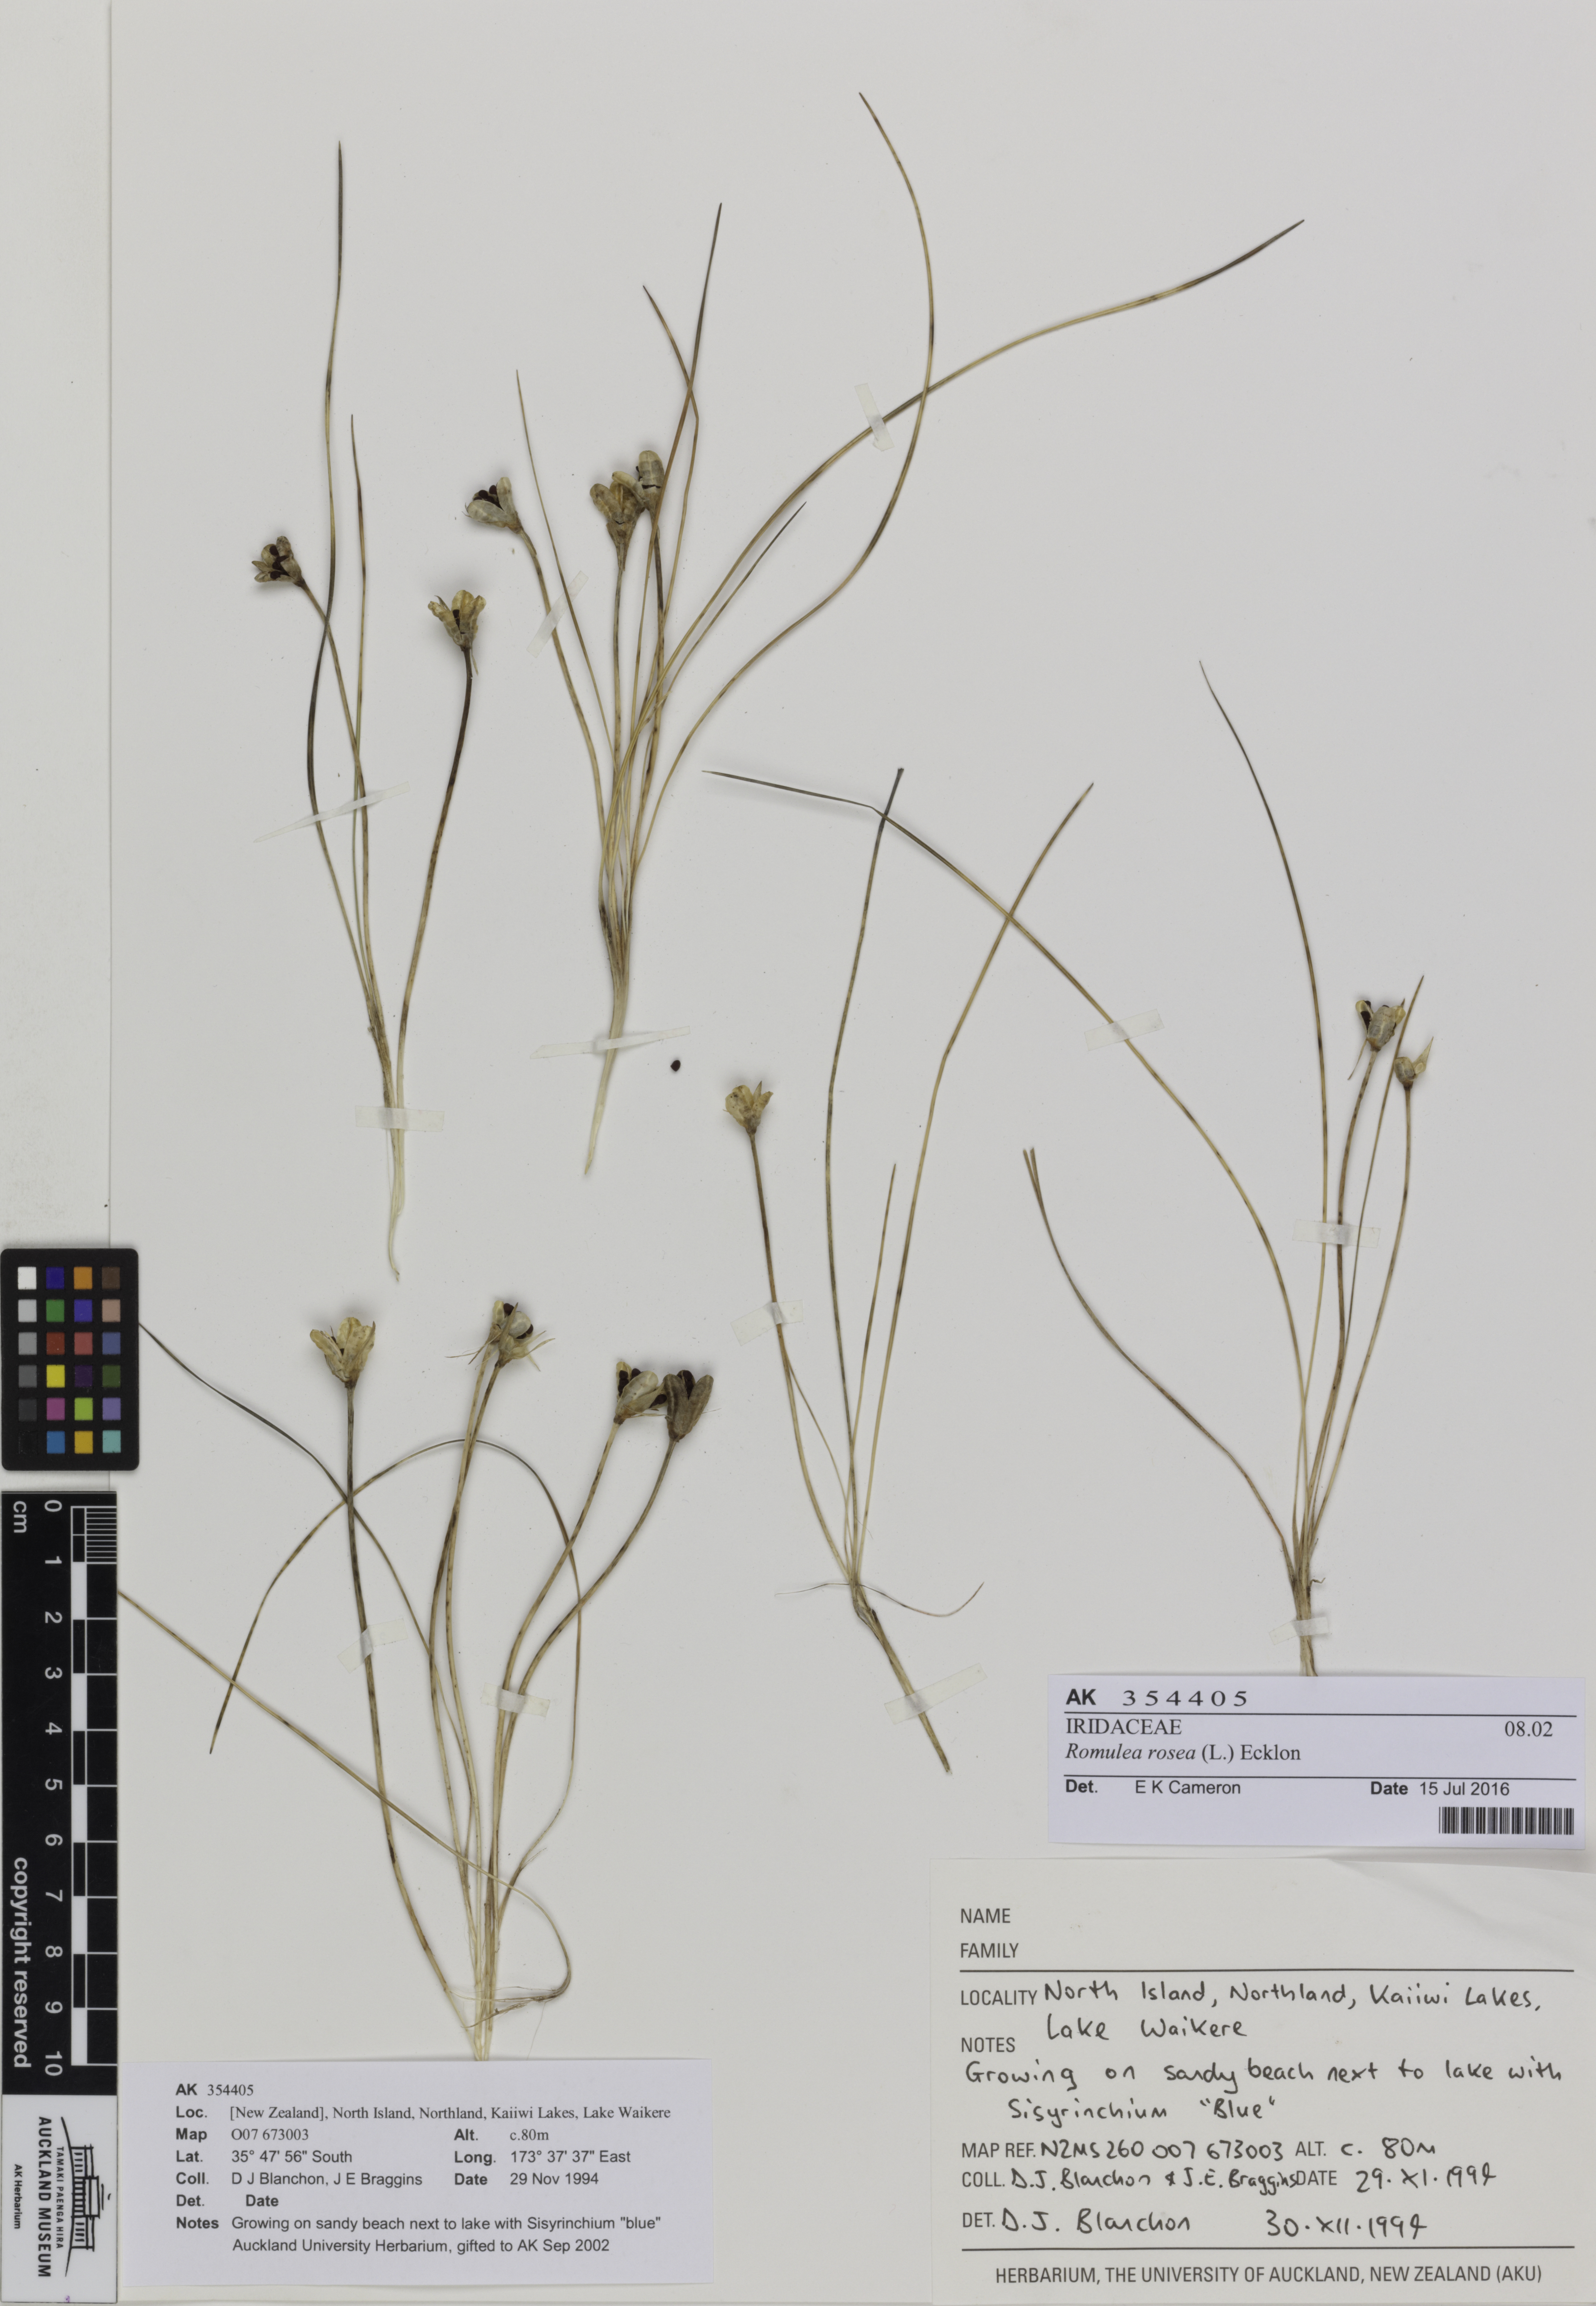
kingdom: Plantae
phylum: Tracheophyta
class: Liliopsida
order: Asparagales
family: Iridaceae
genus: Romulea
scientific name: Romulea rosea
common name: Oniongrass
